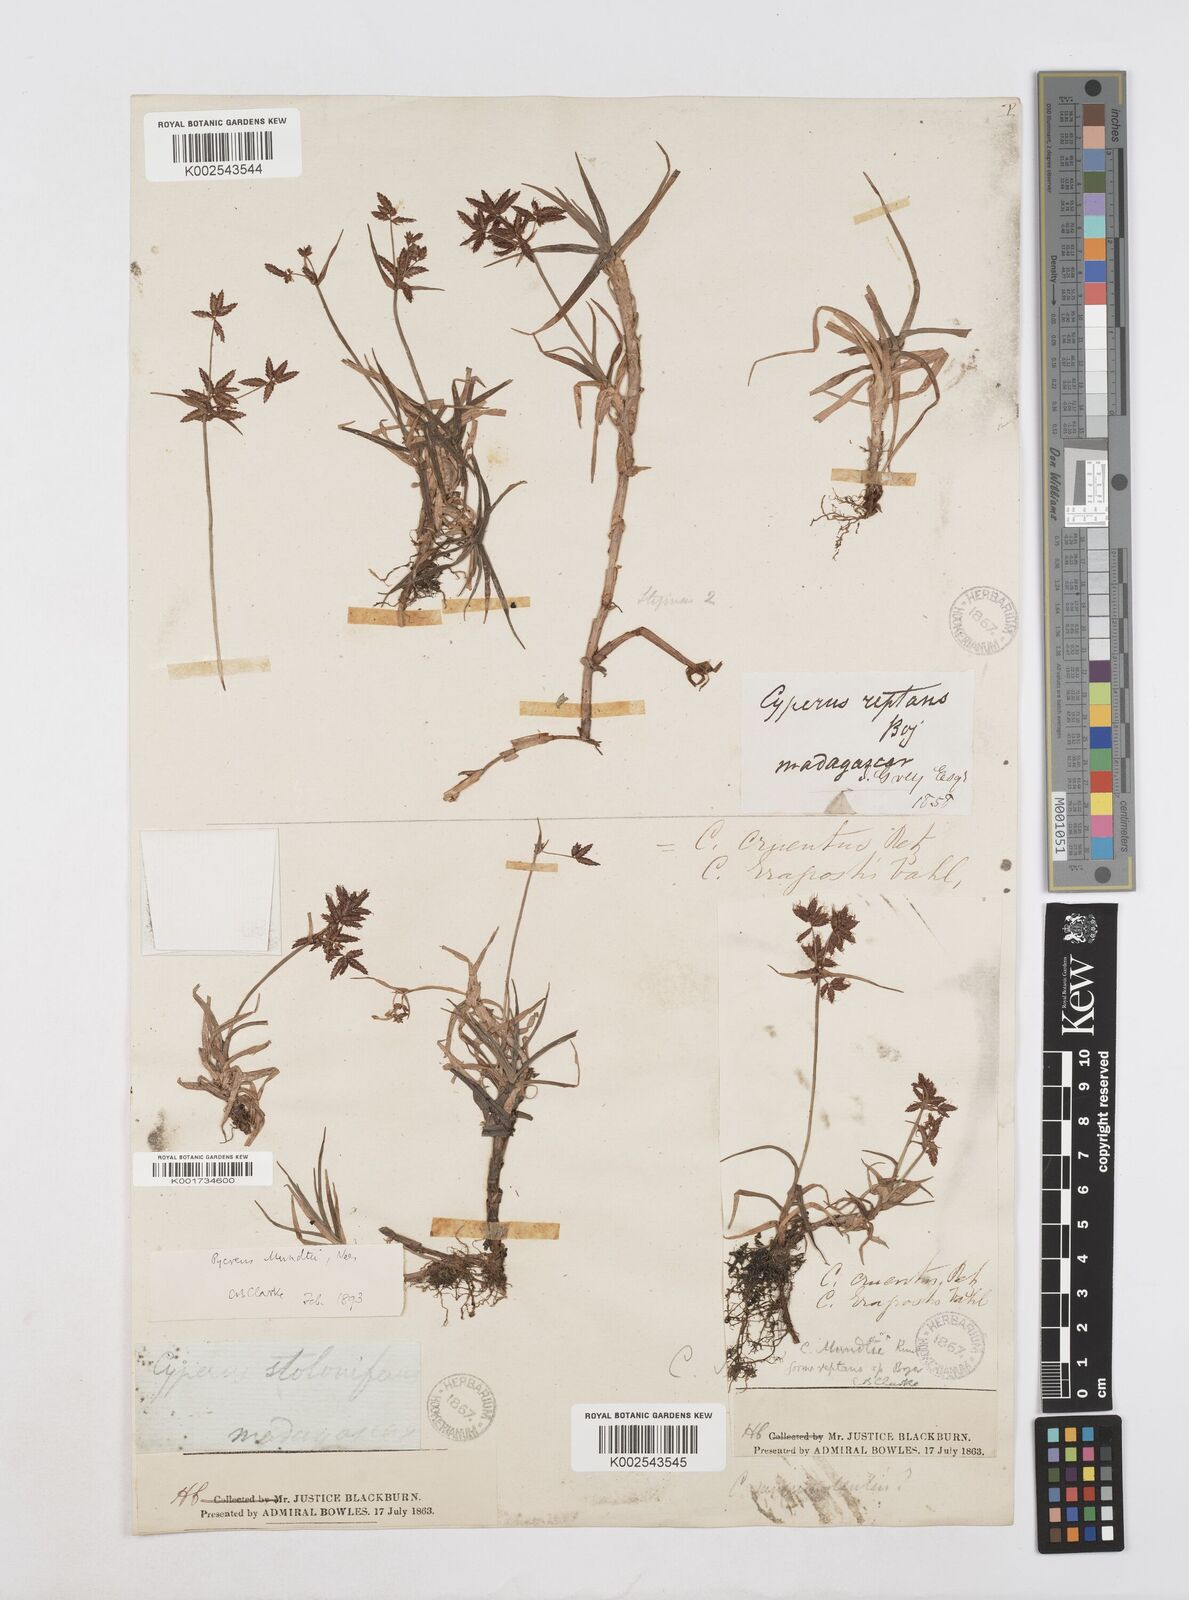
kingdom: Plantae
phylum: Tracheophyta
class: Liliopsida
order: Poales
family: Cyperaceae
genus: Cyperus
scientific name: Cyperus mundii
